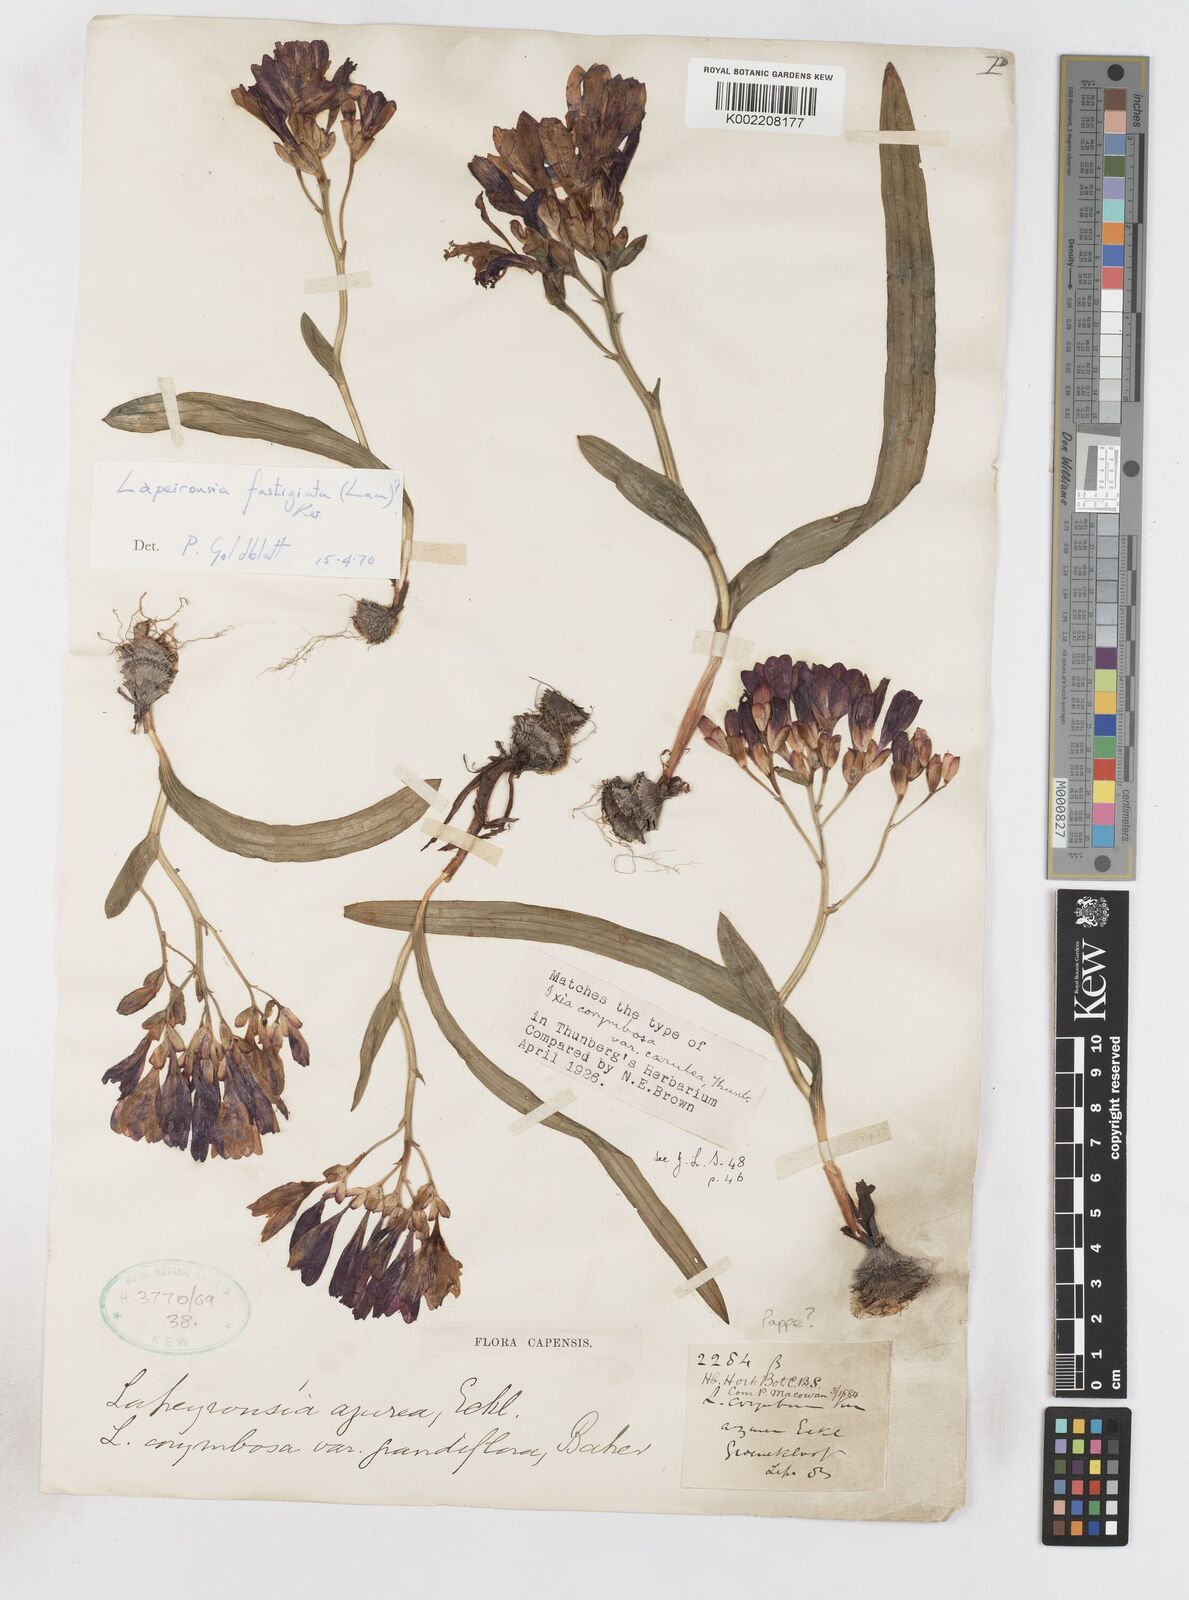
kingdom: Plantae
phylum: Tracheophyta
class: Liliopsida
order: Asparagales
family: Iridaceae
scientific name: Iridaceae
